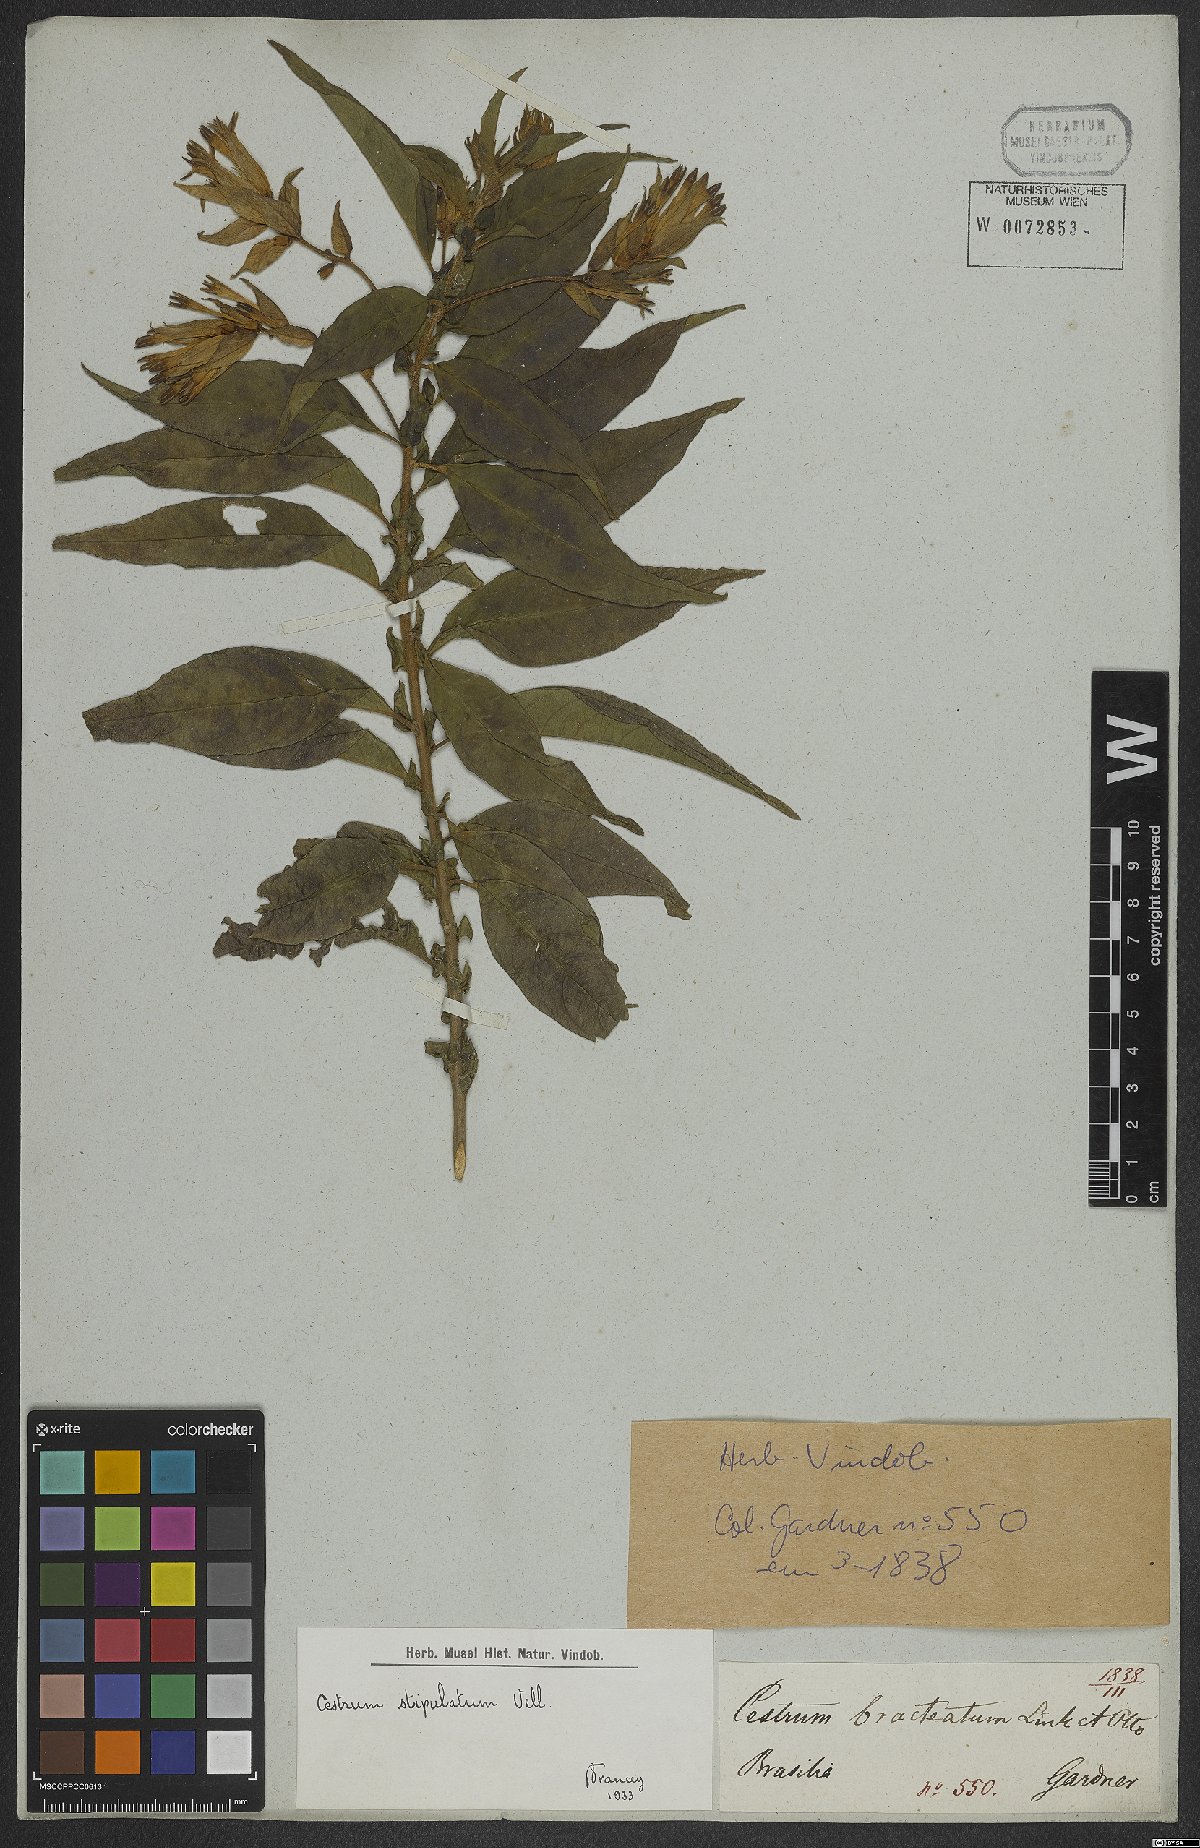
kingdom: Plantae
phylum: Tracheophyta
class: Magnoliopsida
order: Solanales
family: Solanaceae
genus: Cestrum
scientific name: Cestrum bracteatum
